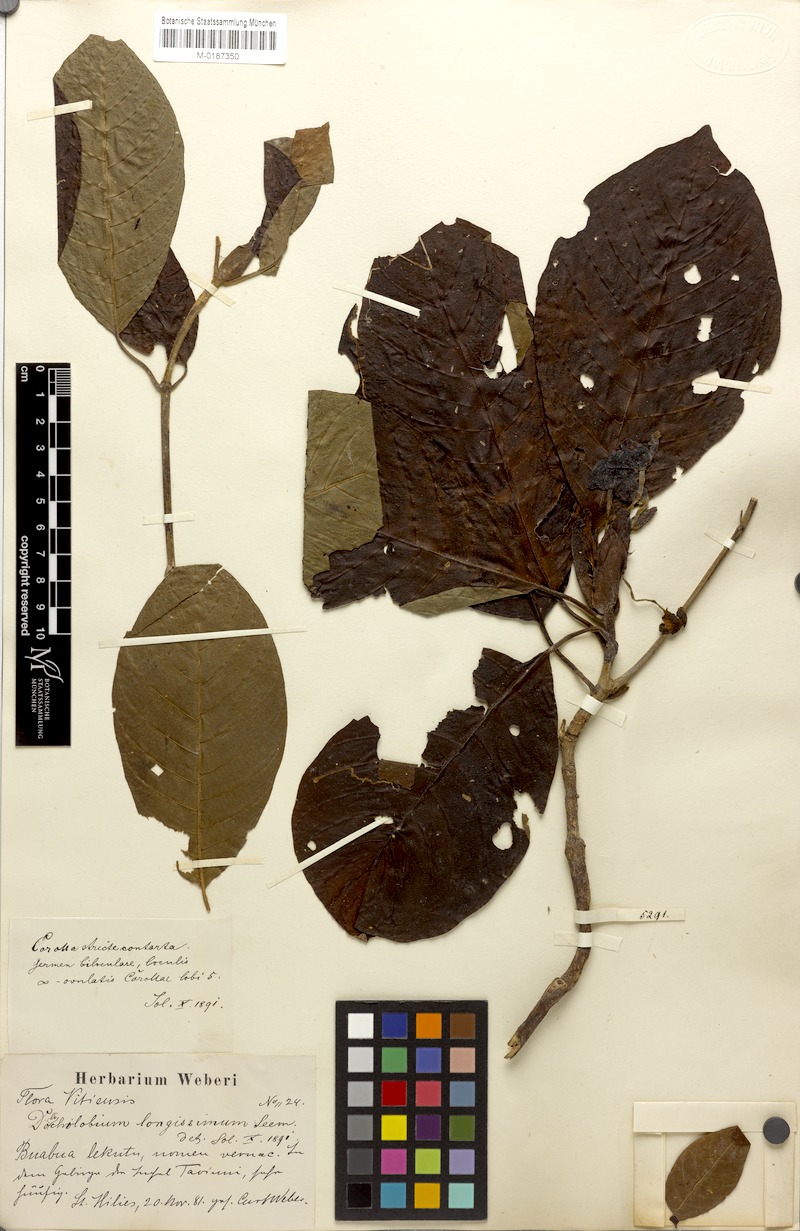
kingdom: Plantae
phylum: Tracheophyta
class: Magnoliopsida
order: Gentianales
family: Rubiaceae
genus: Dolicholobium
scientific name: Dolicholobium oblongifolium
